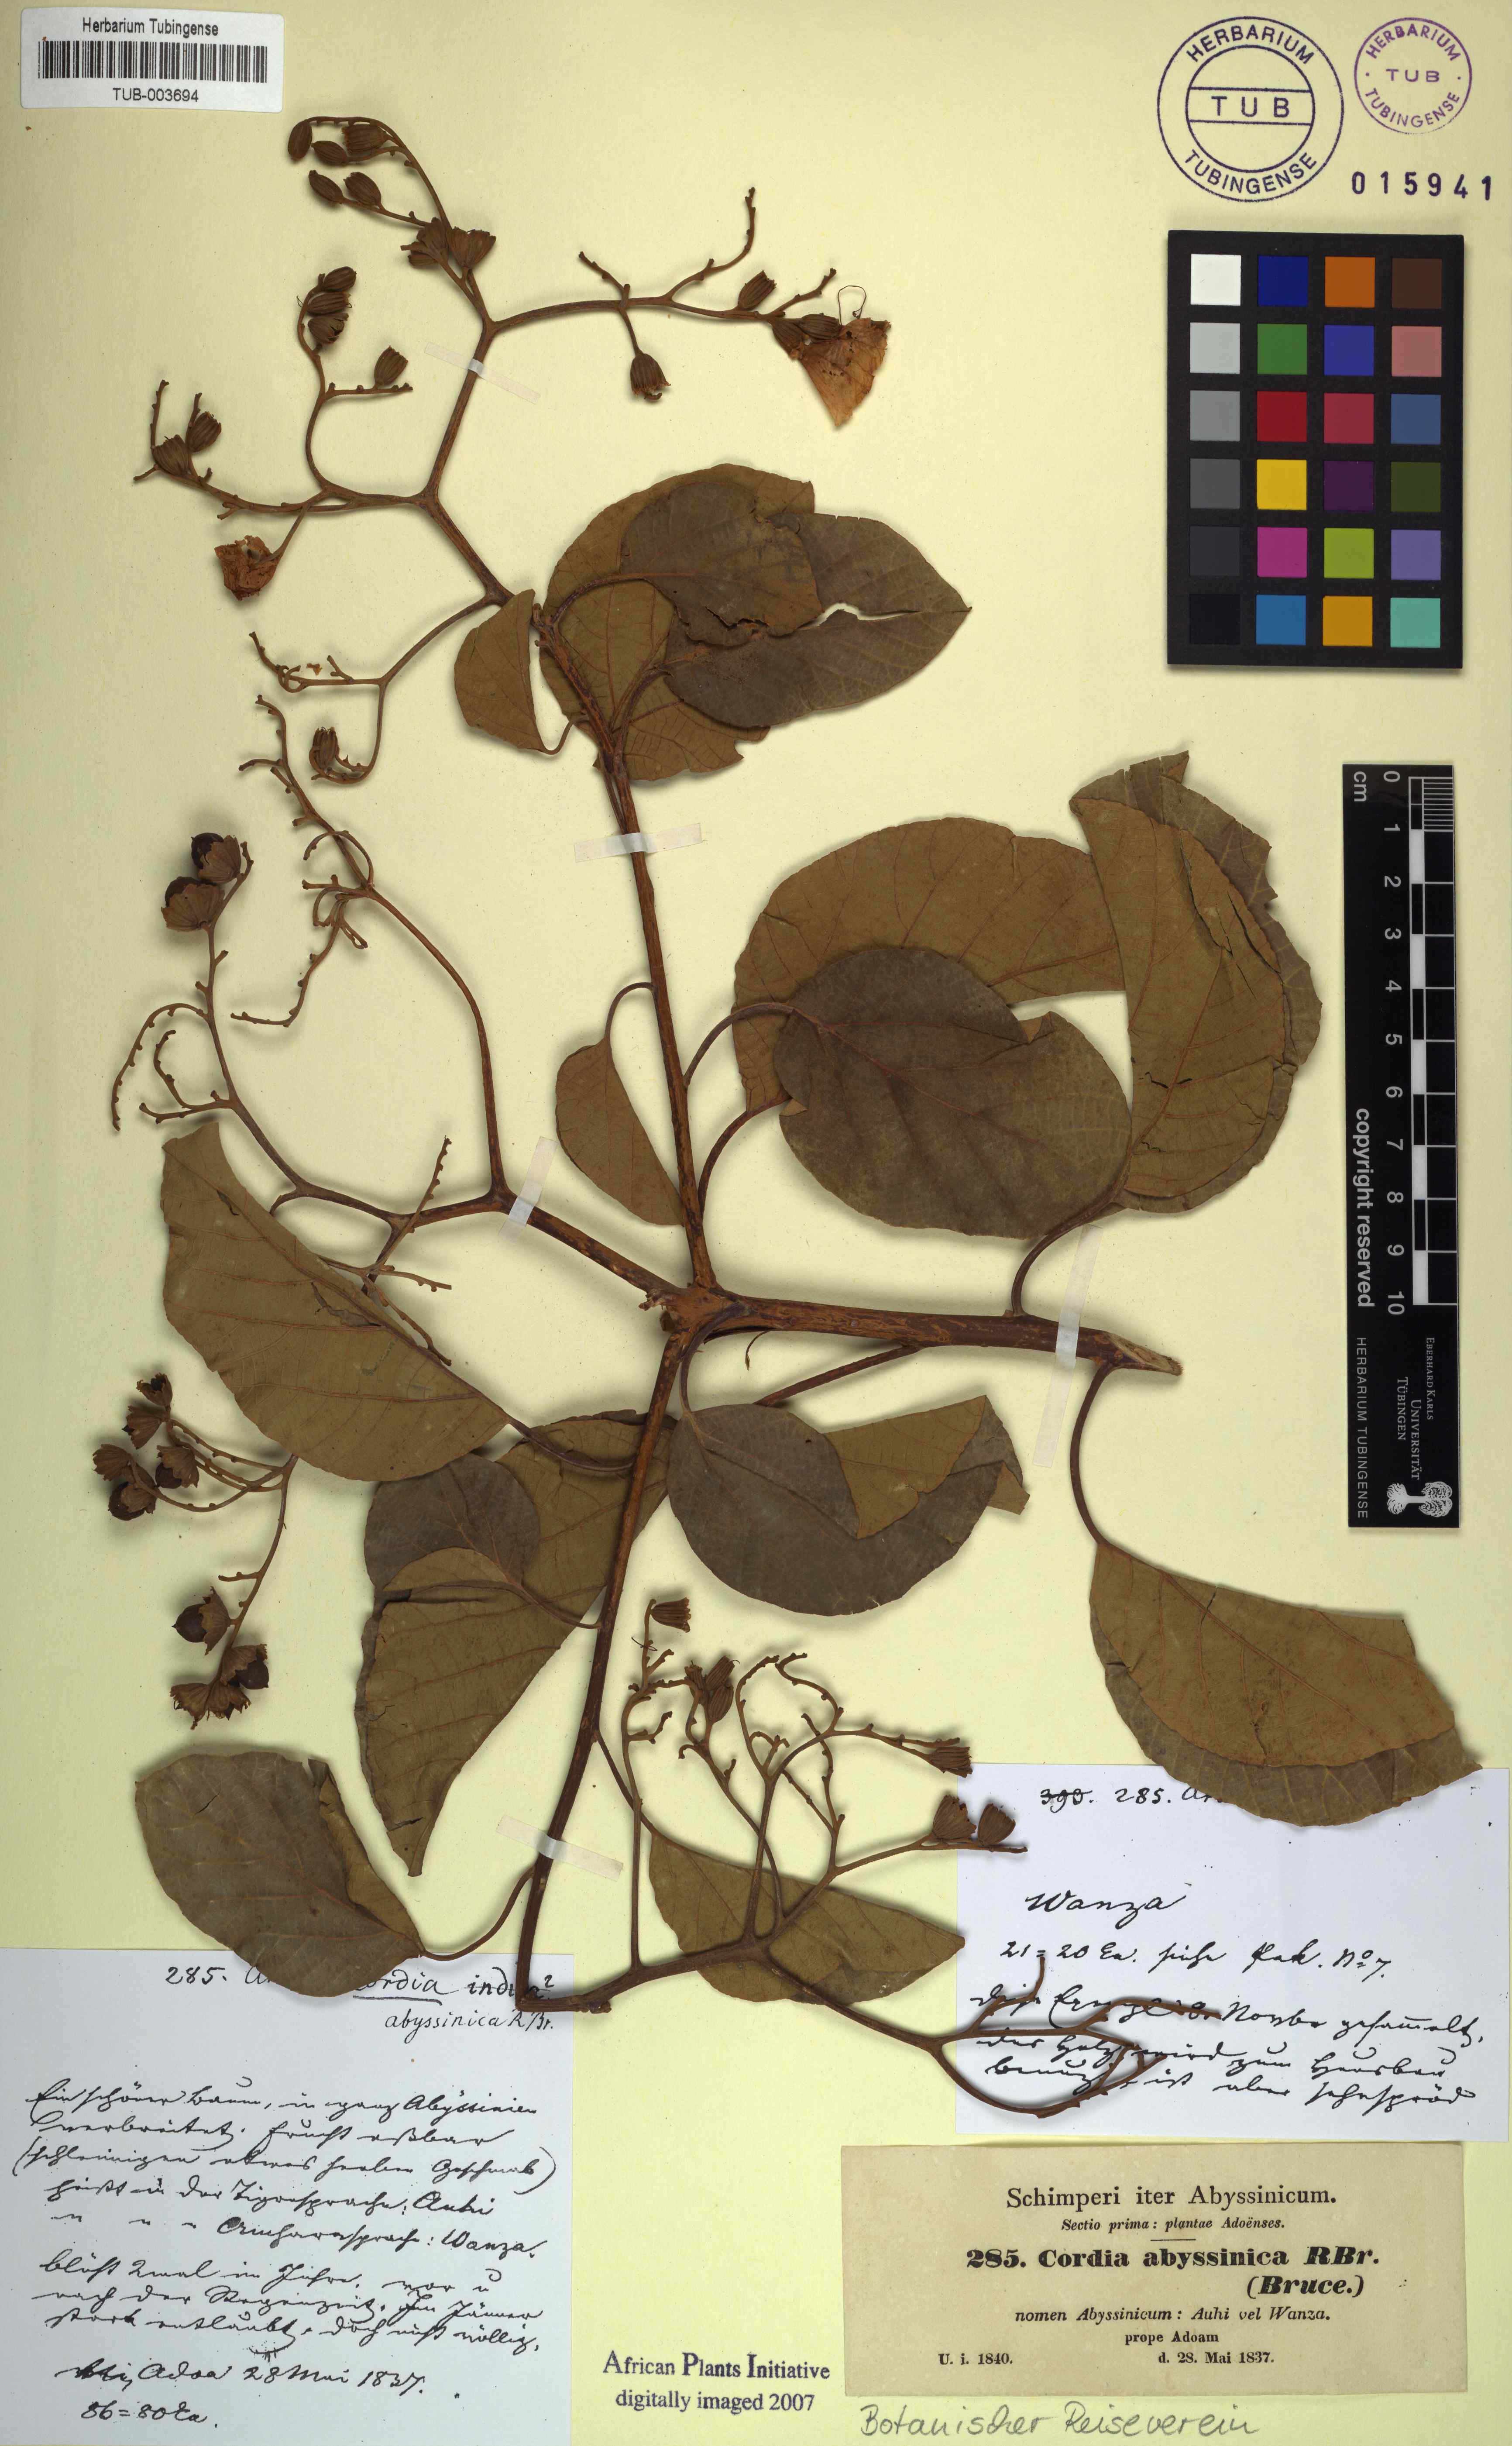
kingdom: Plantae
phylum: Tracheophyta
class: Magnoliopsida
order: Boraginales
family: Cordiaceae
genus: Cordia
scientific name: Cordia crenata
